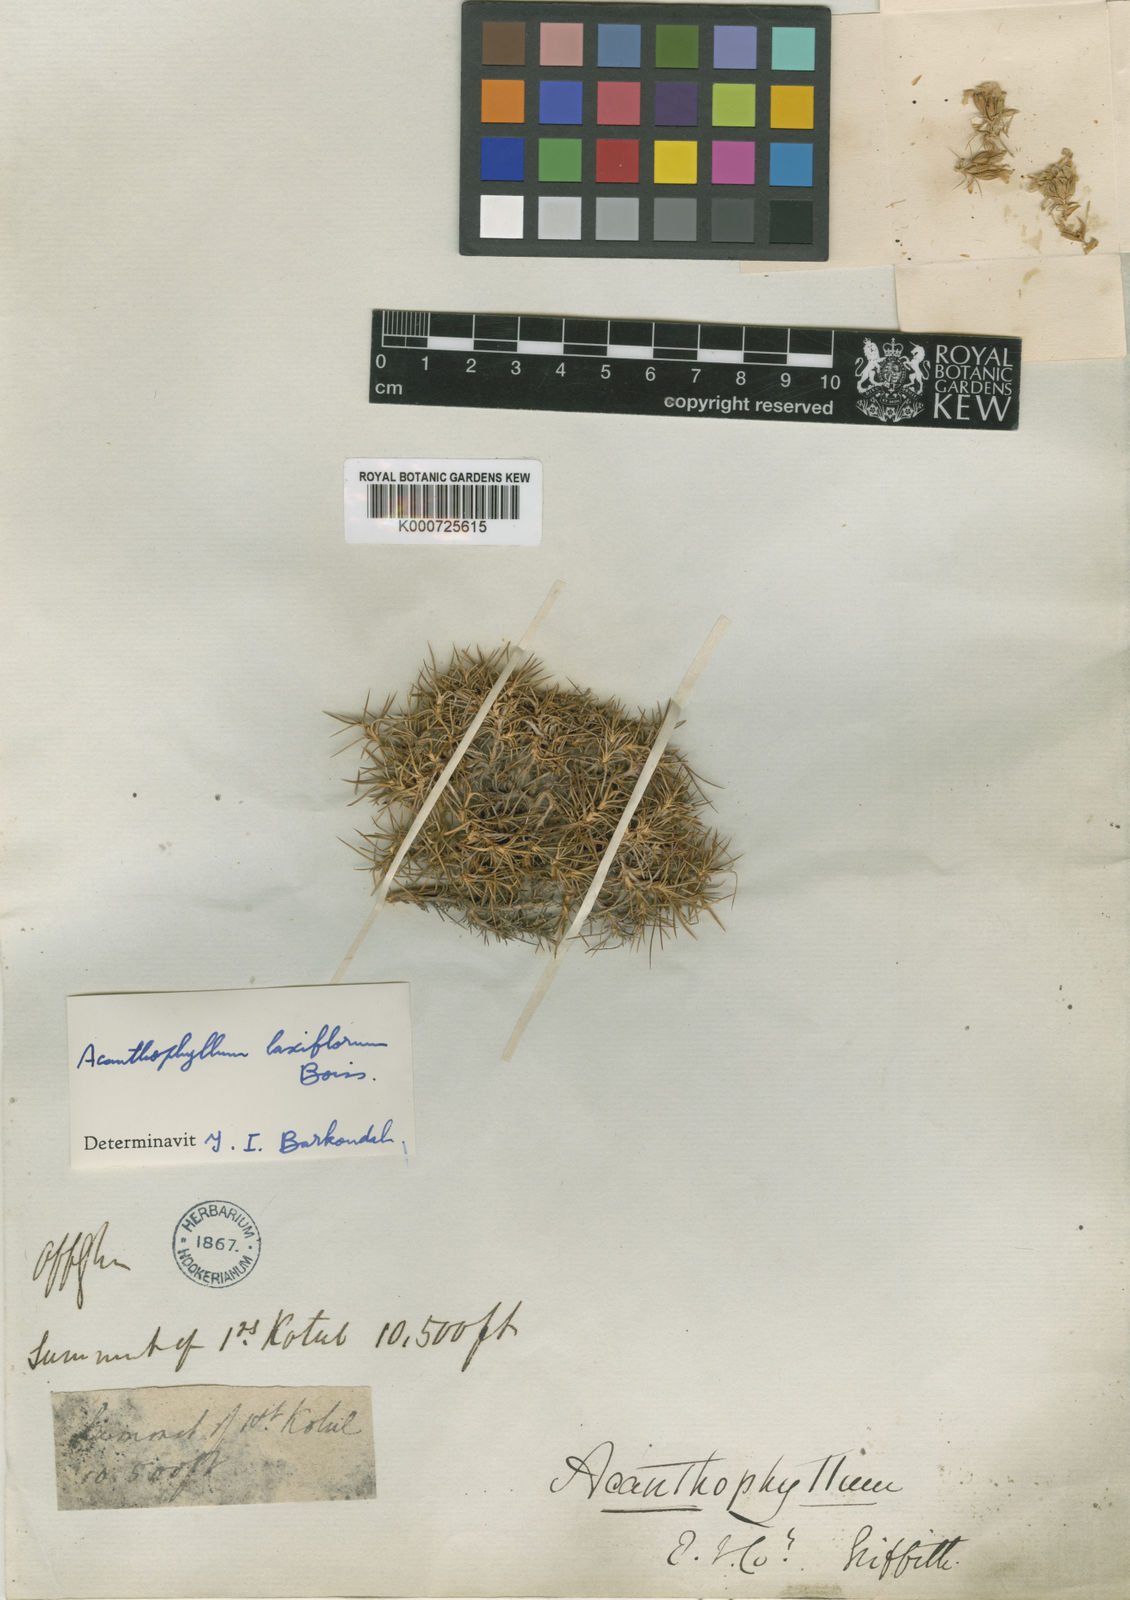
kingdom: Plantae
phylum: Tracheophyta
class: Magnoliopsida
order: Caryophyllales
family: Caryophyllaceae
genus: Acanthophyllum
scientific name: Acanthophyllum laxiflorum
